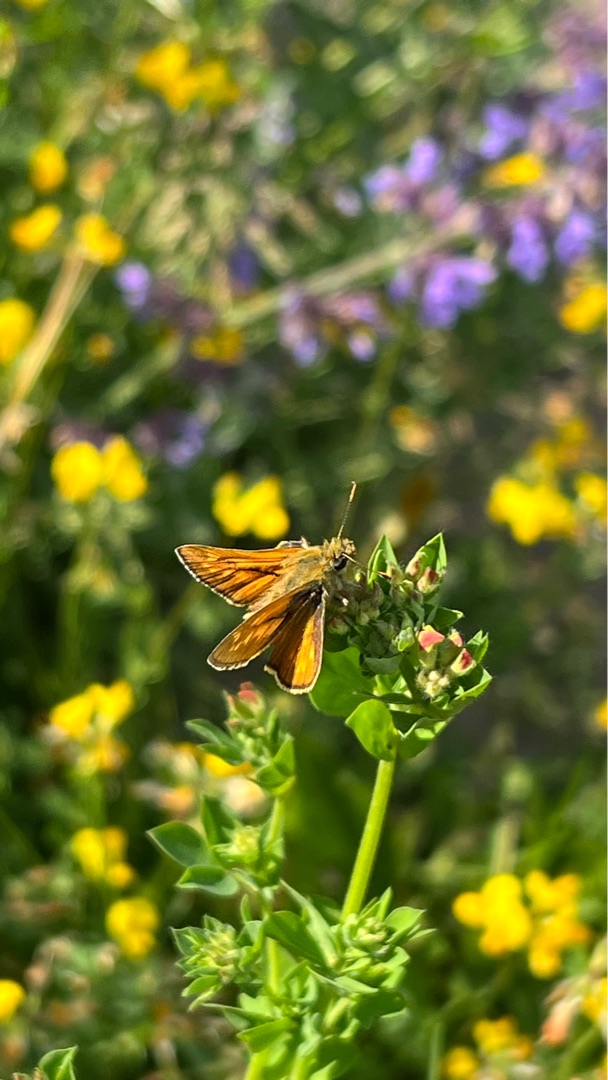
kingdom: Animalia
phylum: Arthropoda
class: Insecta
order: Lepidoptera
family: Hesperiidae
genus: Ochlodes
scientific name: Ochlodes venata
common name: Stor bredpande
